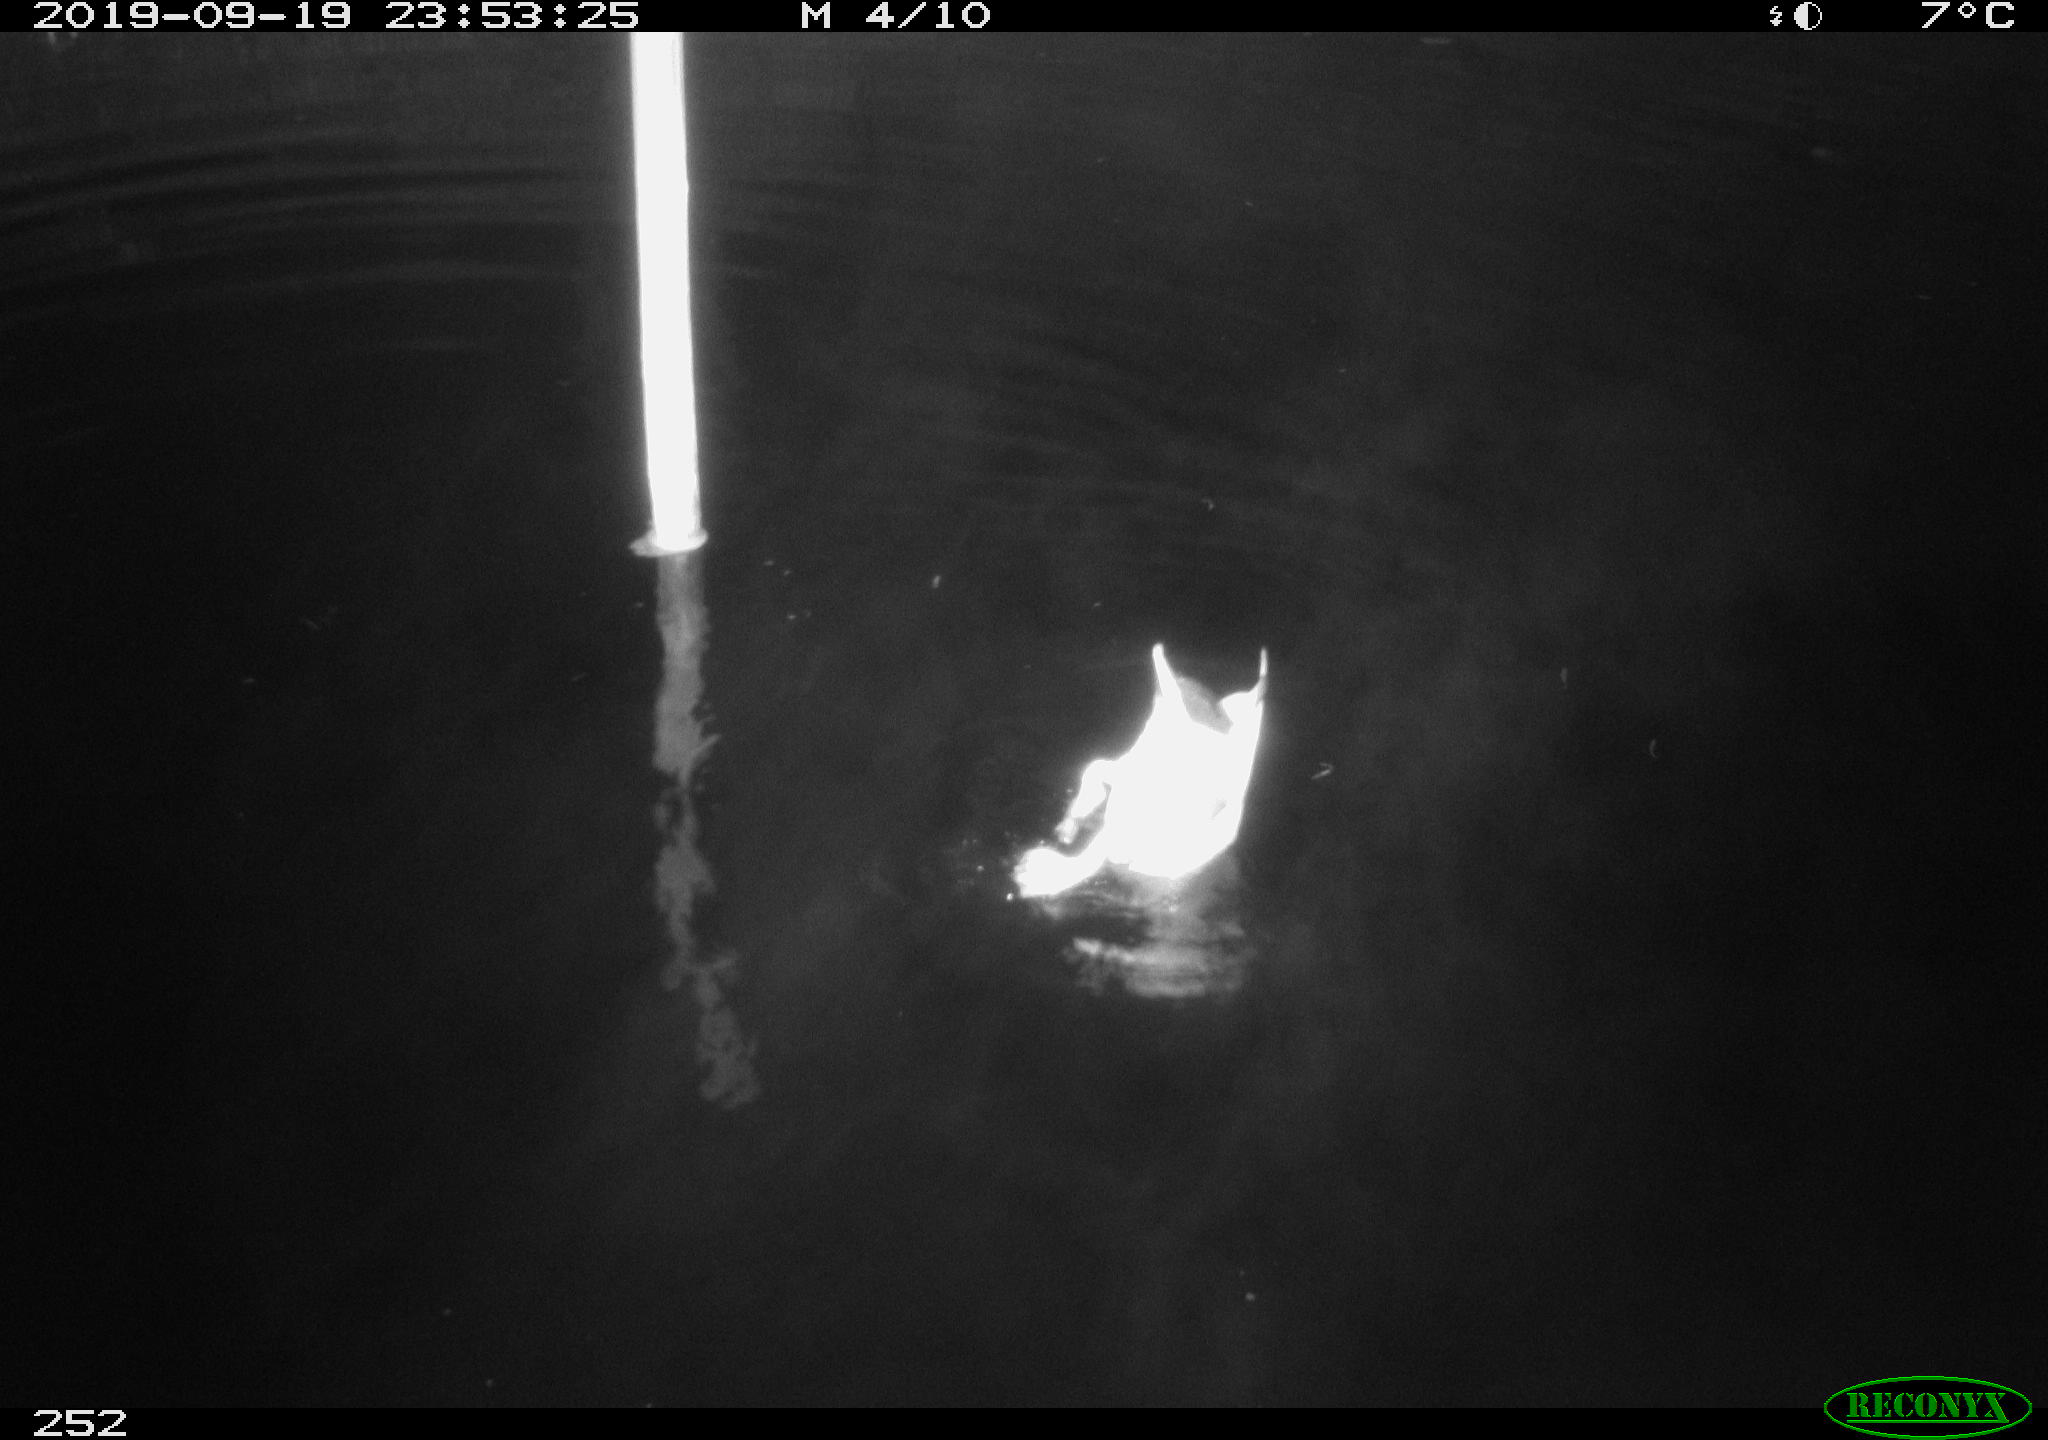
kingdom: Animalia
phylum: Chordata
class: Aves
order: Anseriformes
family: Anatidae
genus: Anas
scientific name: Anas platyrhynchos
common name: Mallard
